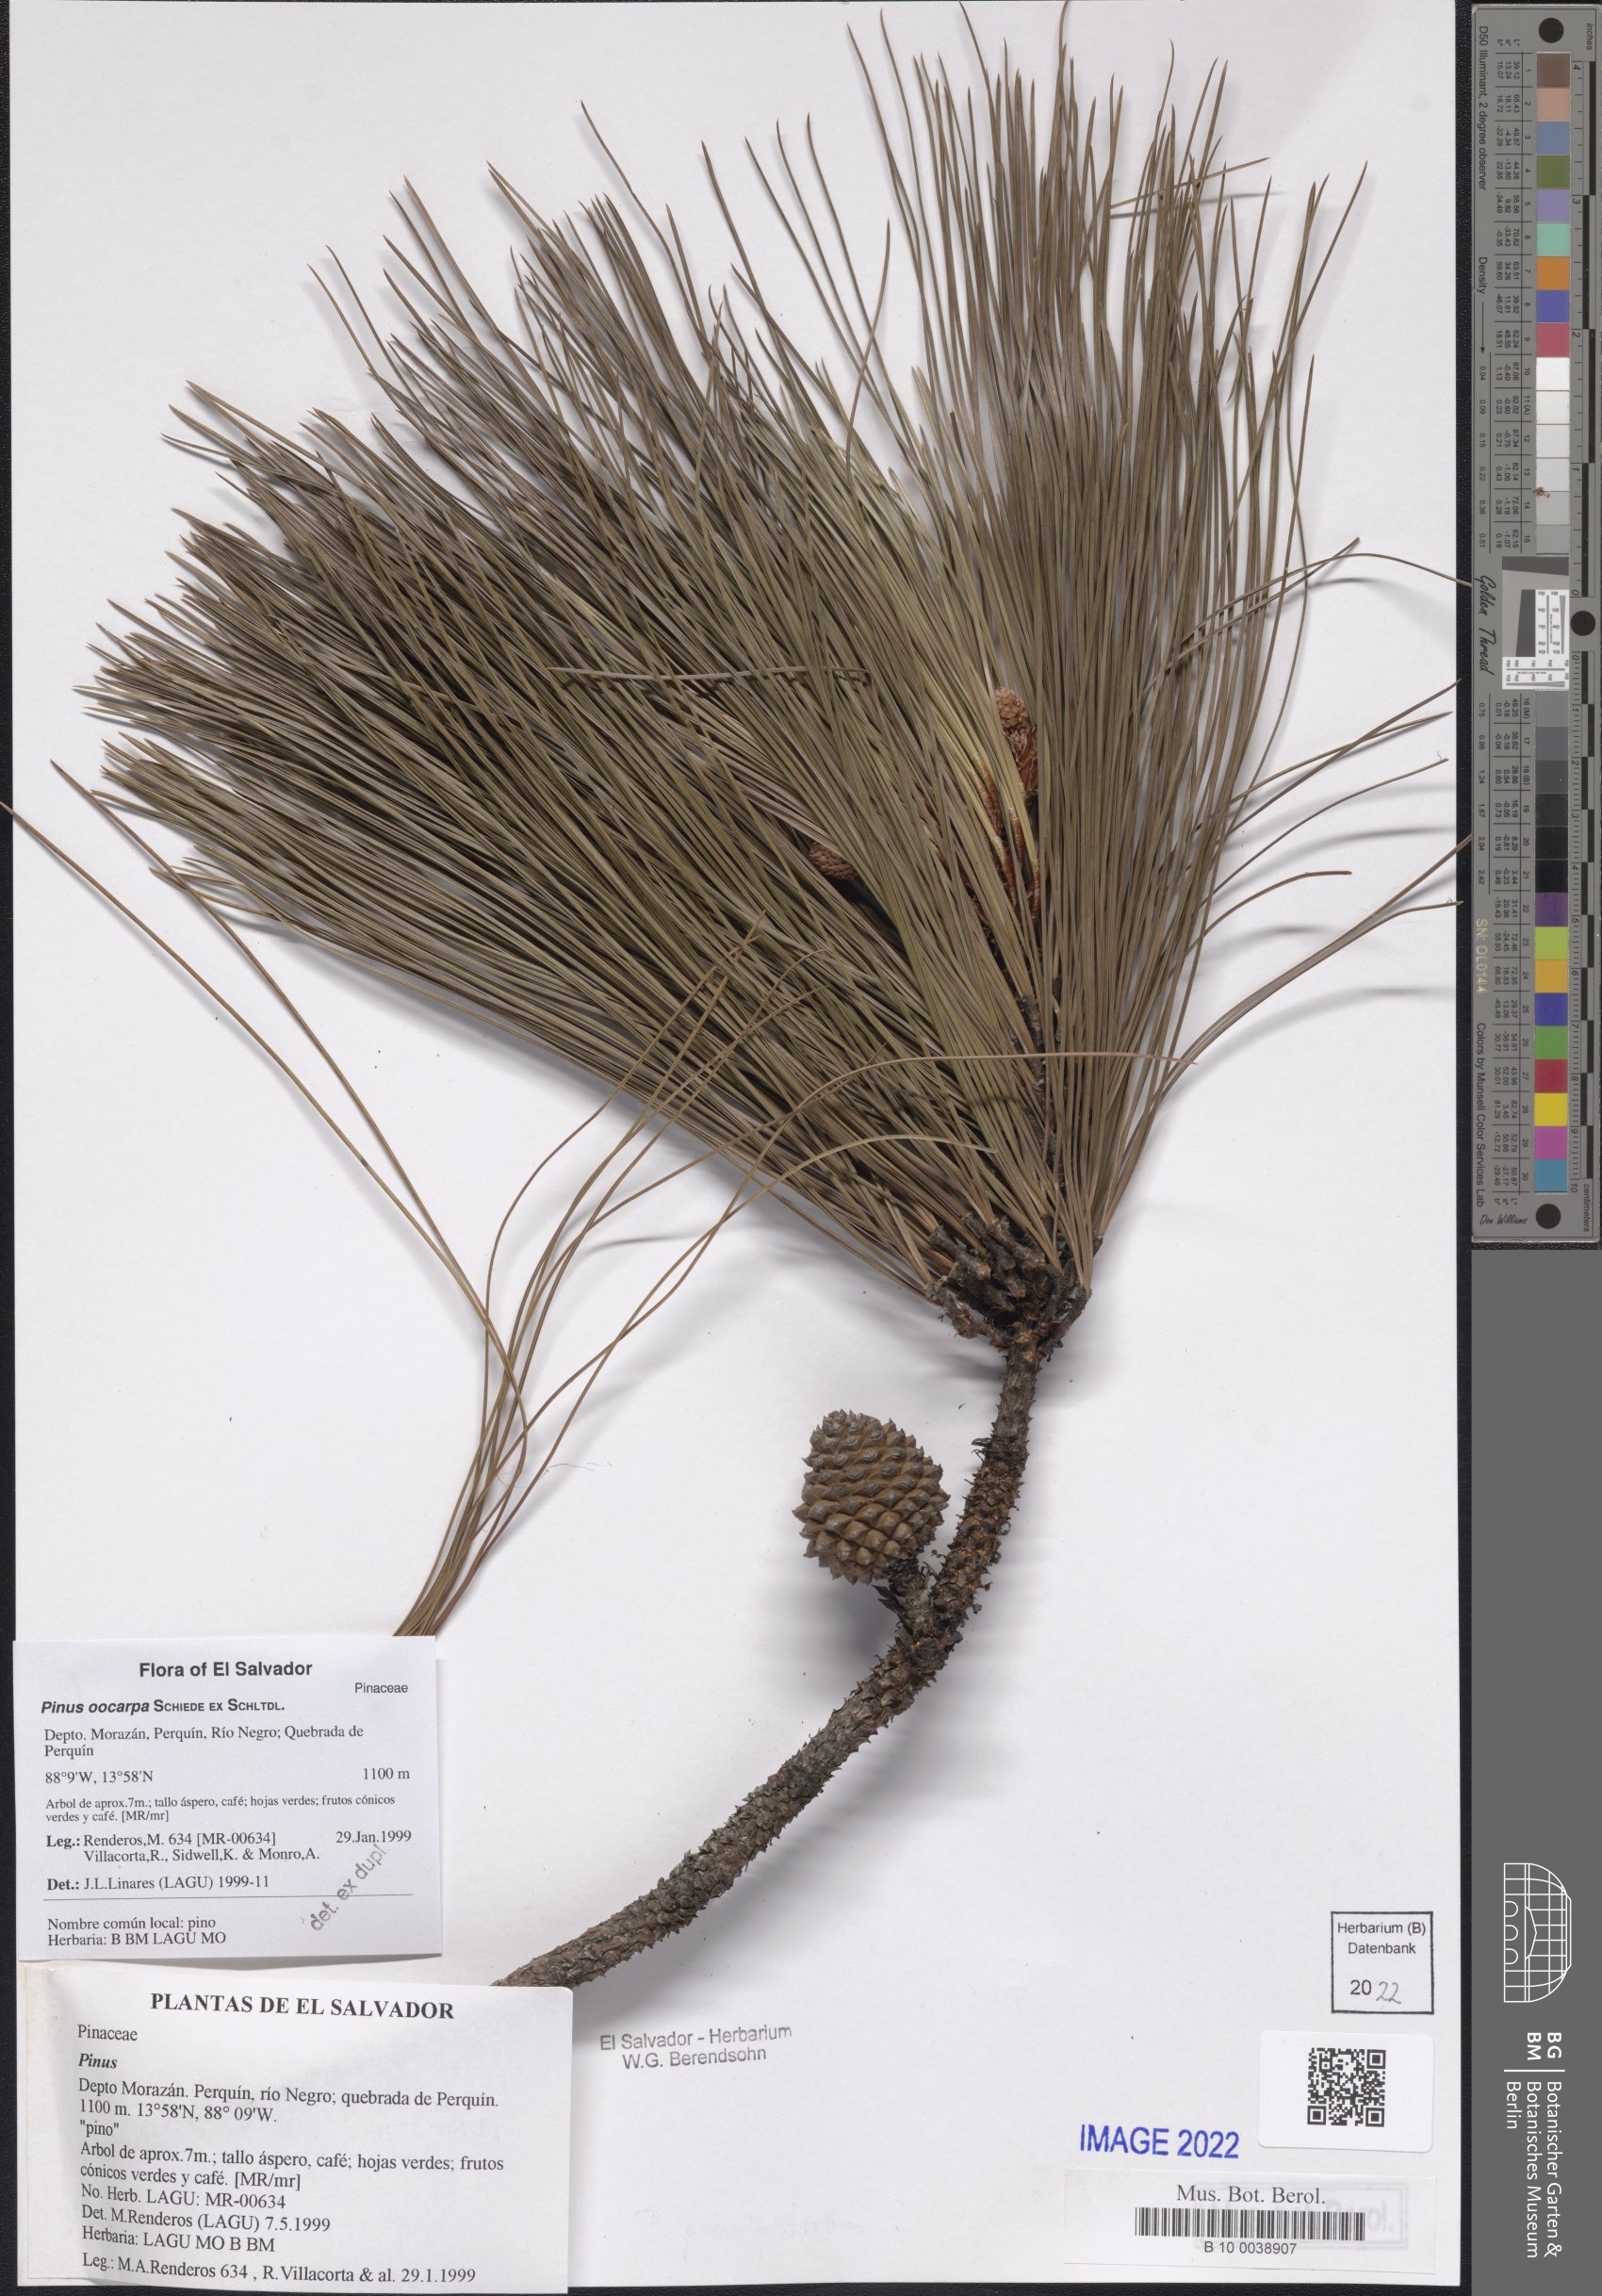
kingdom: Plantae
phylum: Tracheophyta
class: Pinopsida
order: Pinales
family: Pinaceae
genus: Pinus
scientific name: Pinus oocarpa
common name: Egg-cone pine
